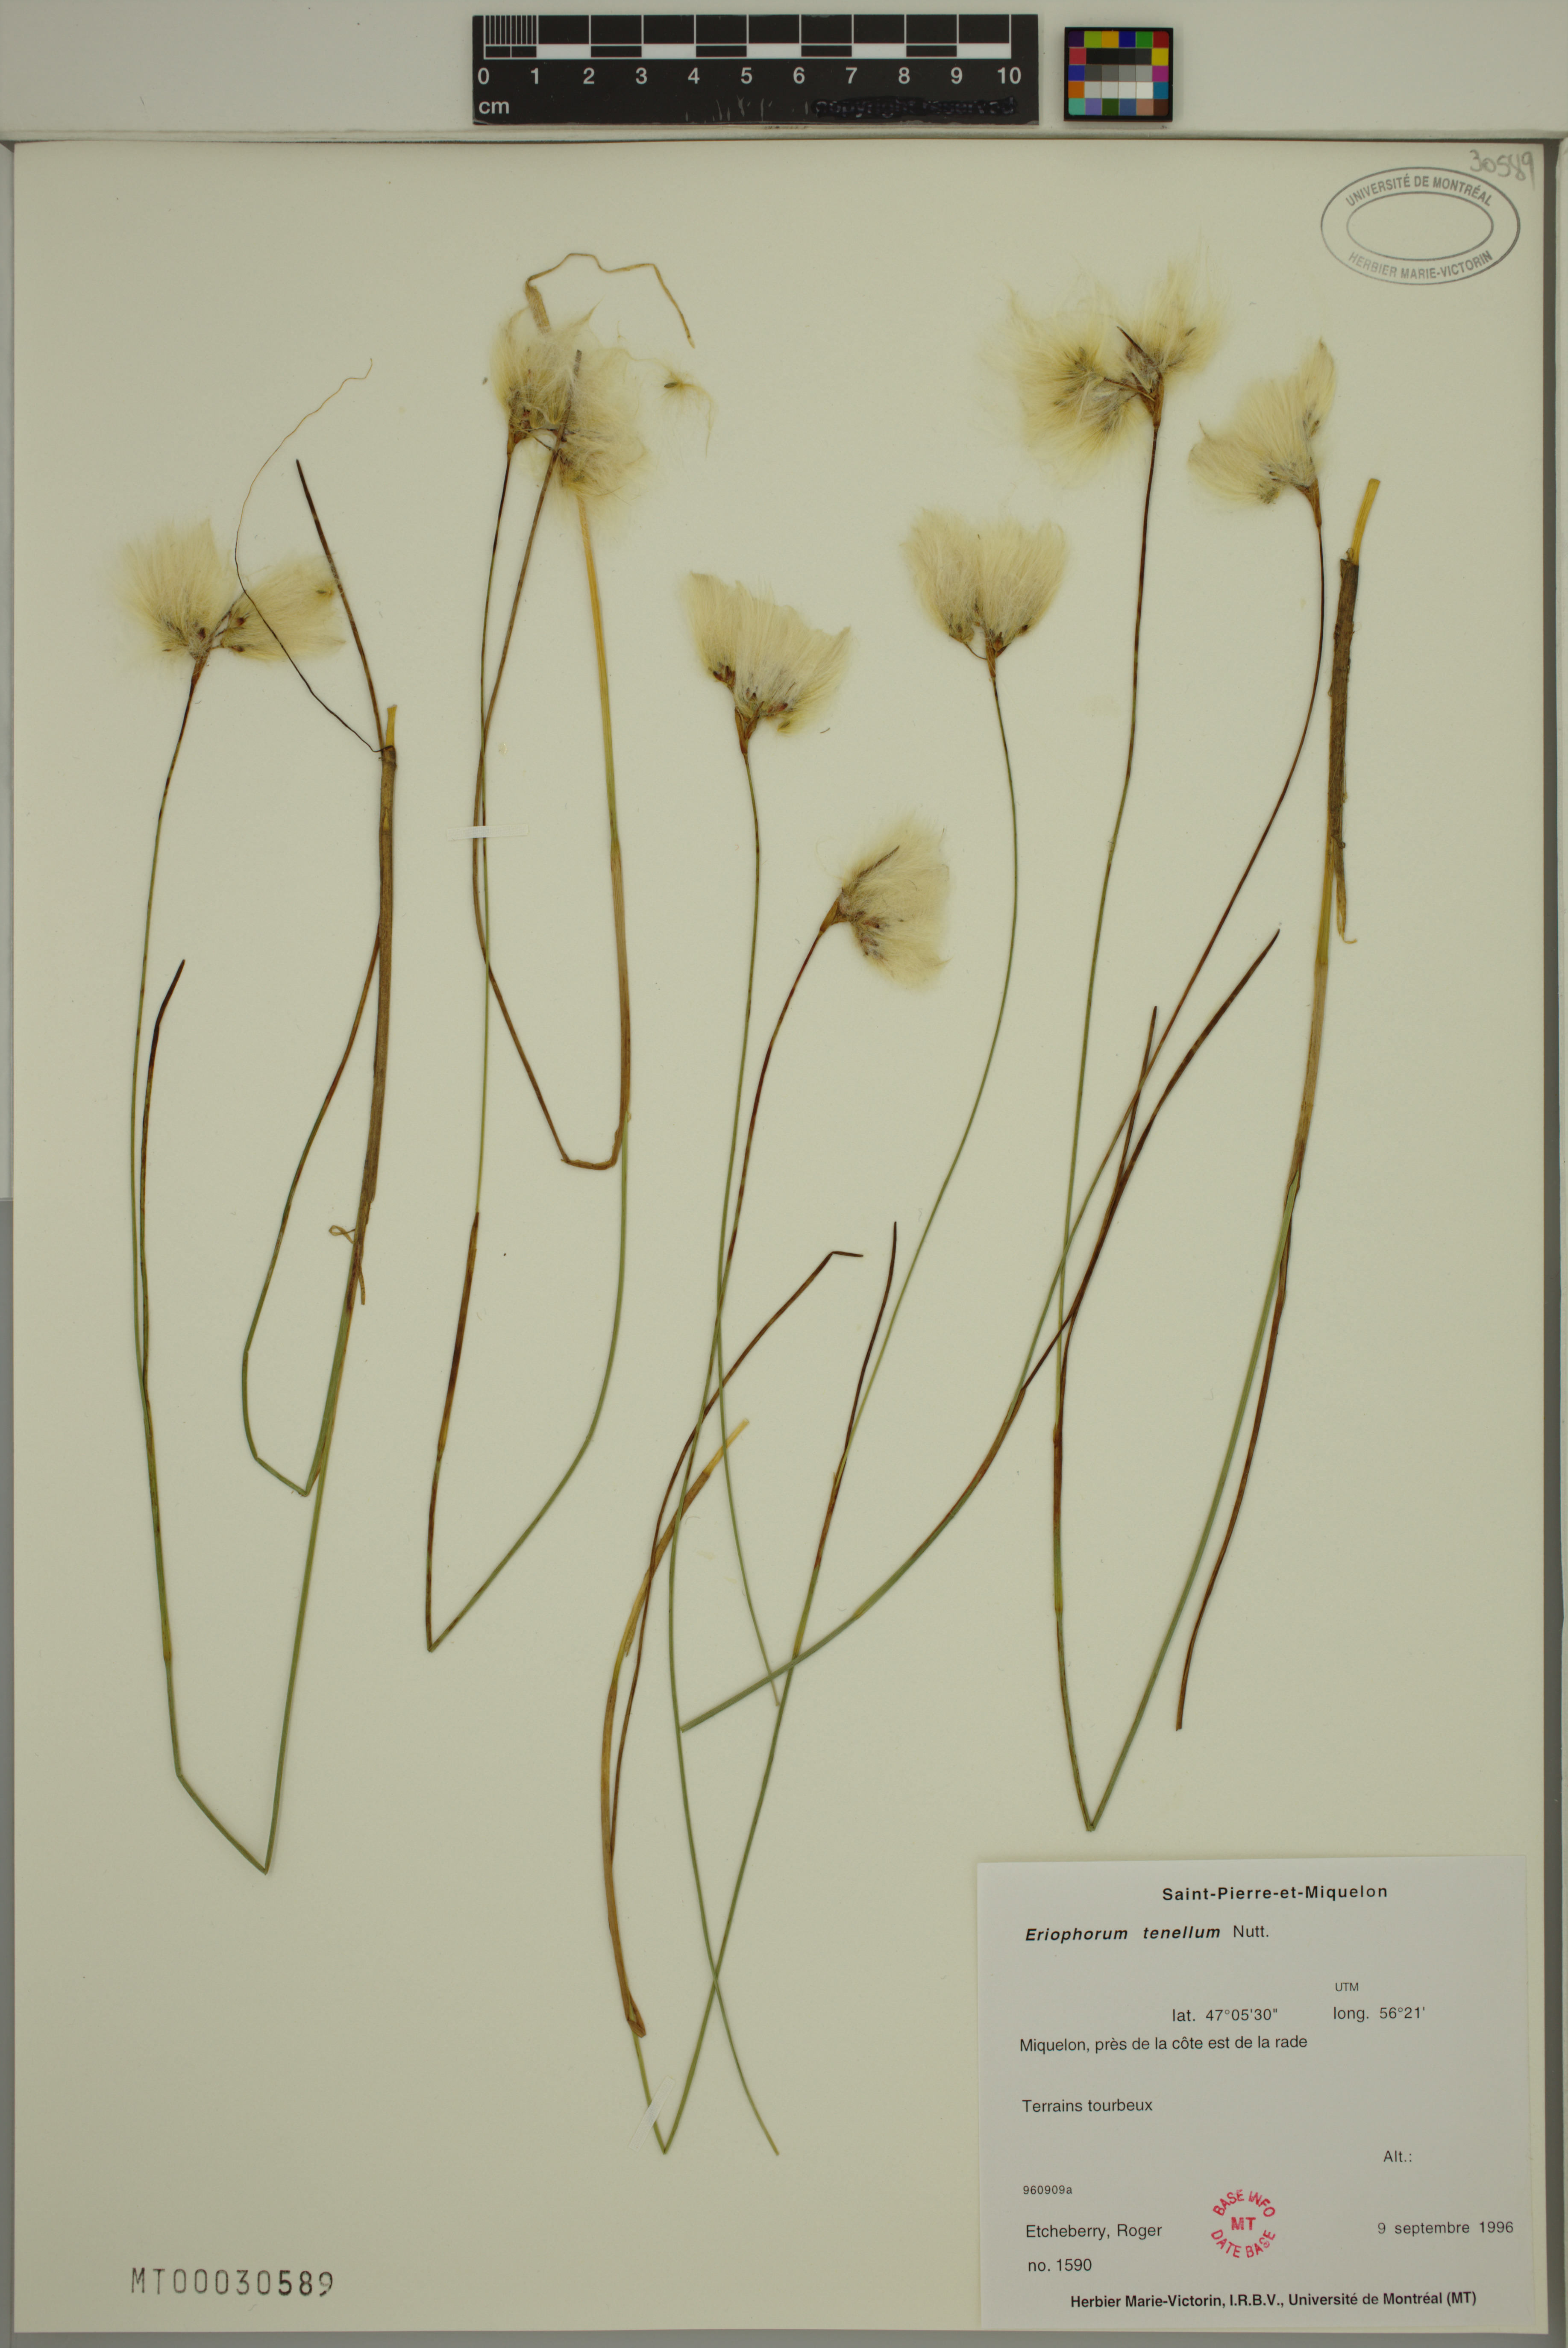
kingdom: Plantae
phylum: Tracheophyta
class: Liliopsida
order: Poales
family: Cyperaceae
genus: Eriophorum
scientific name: Eriophorum tenellum
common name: Few-nerved cottongrass
